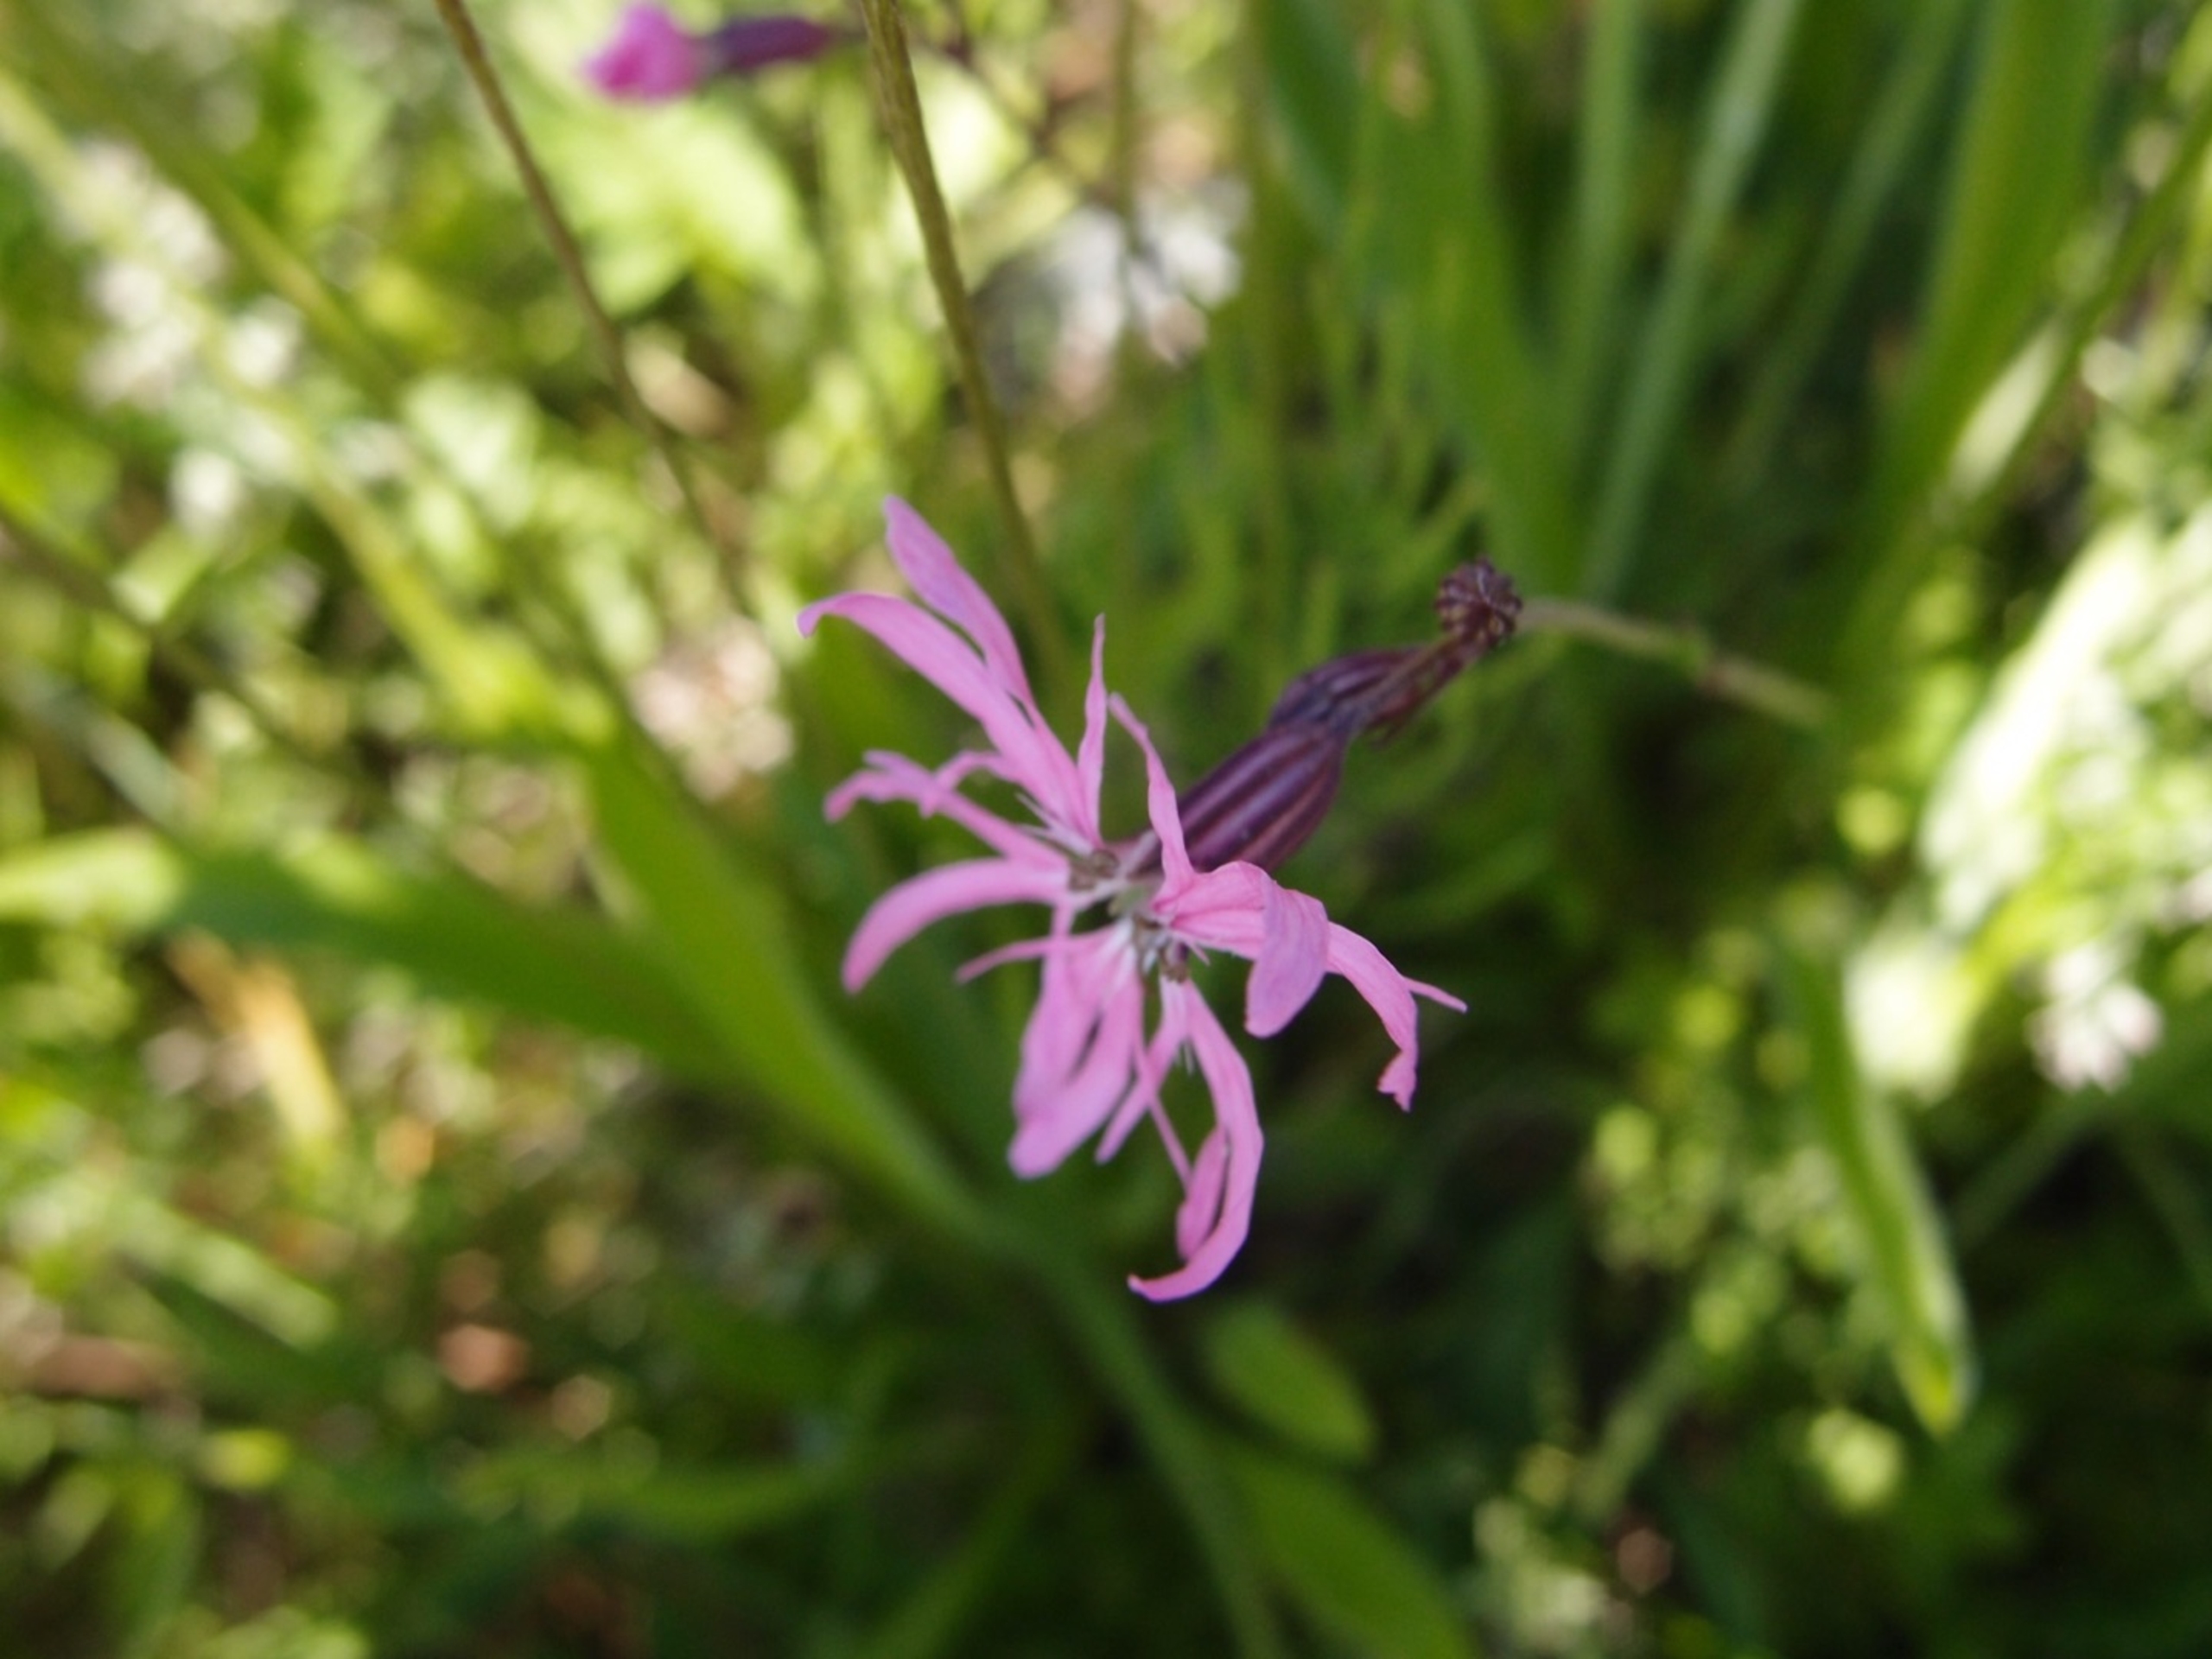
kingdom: Plantae
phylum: Tracheophyta
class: Magnoliopsida
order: Caryophyllales
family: Caryophyllaceae
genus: Silene
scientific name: Silene flos-cuculi
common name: Trævlekrone
